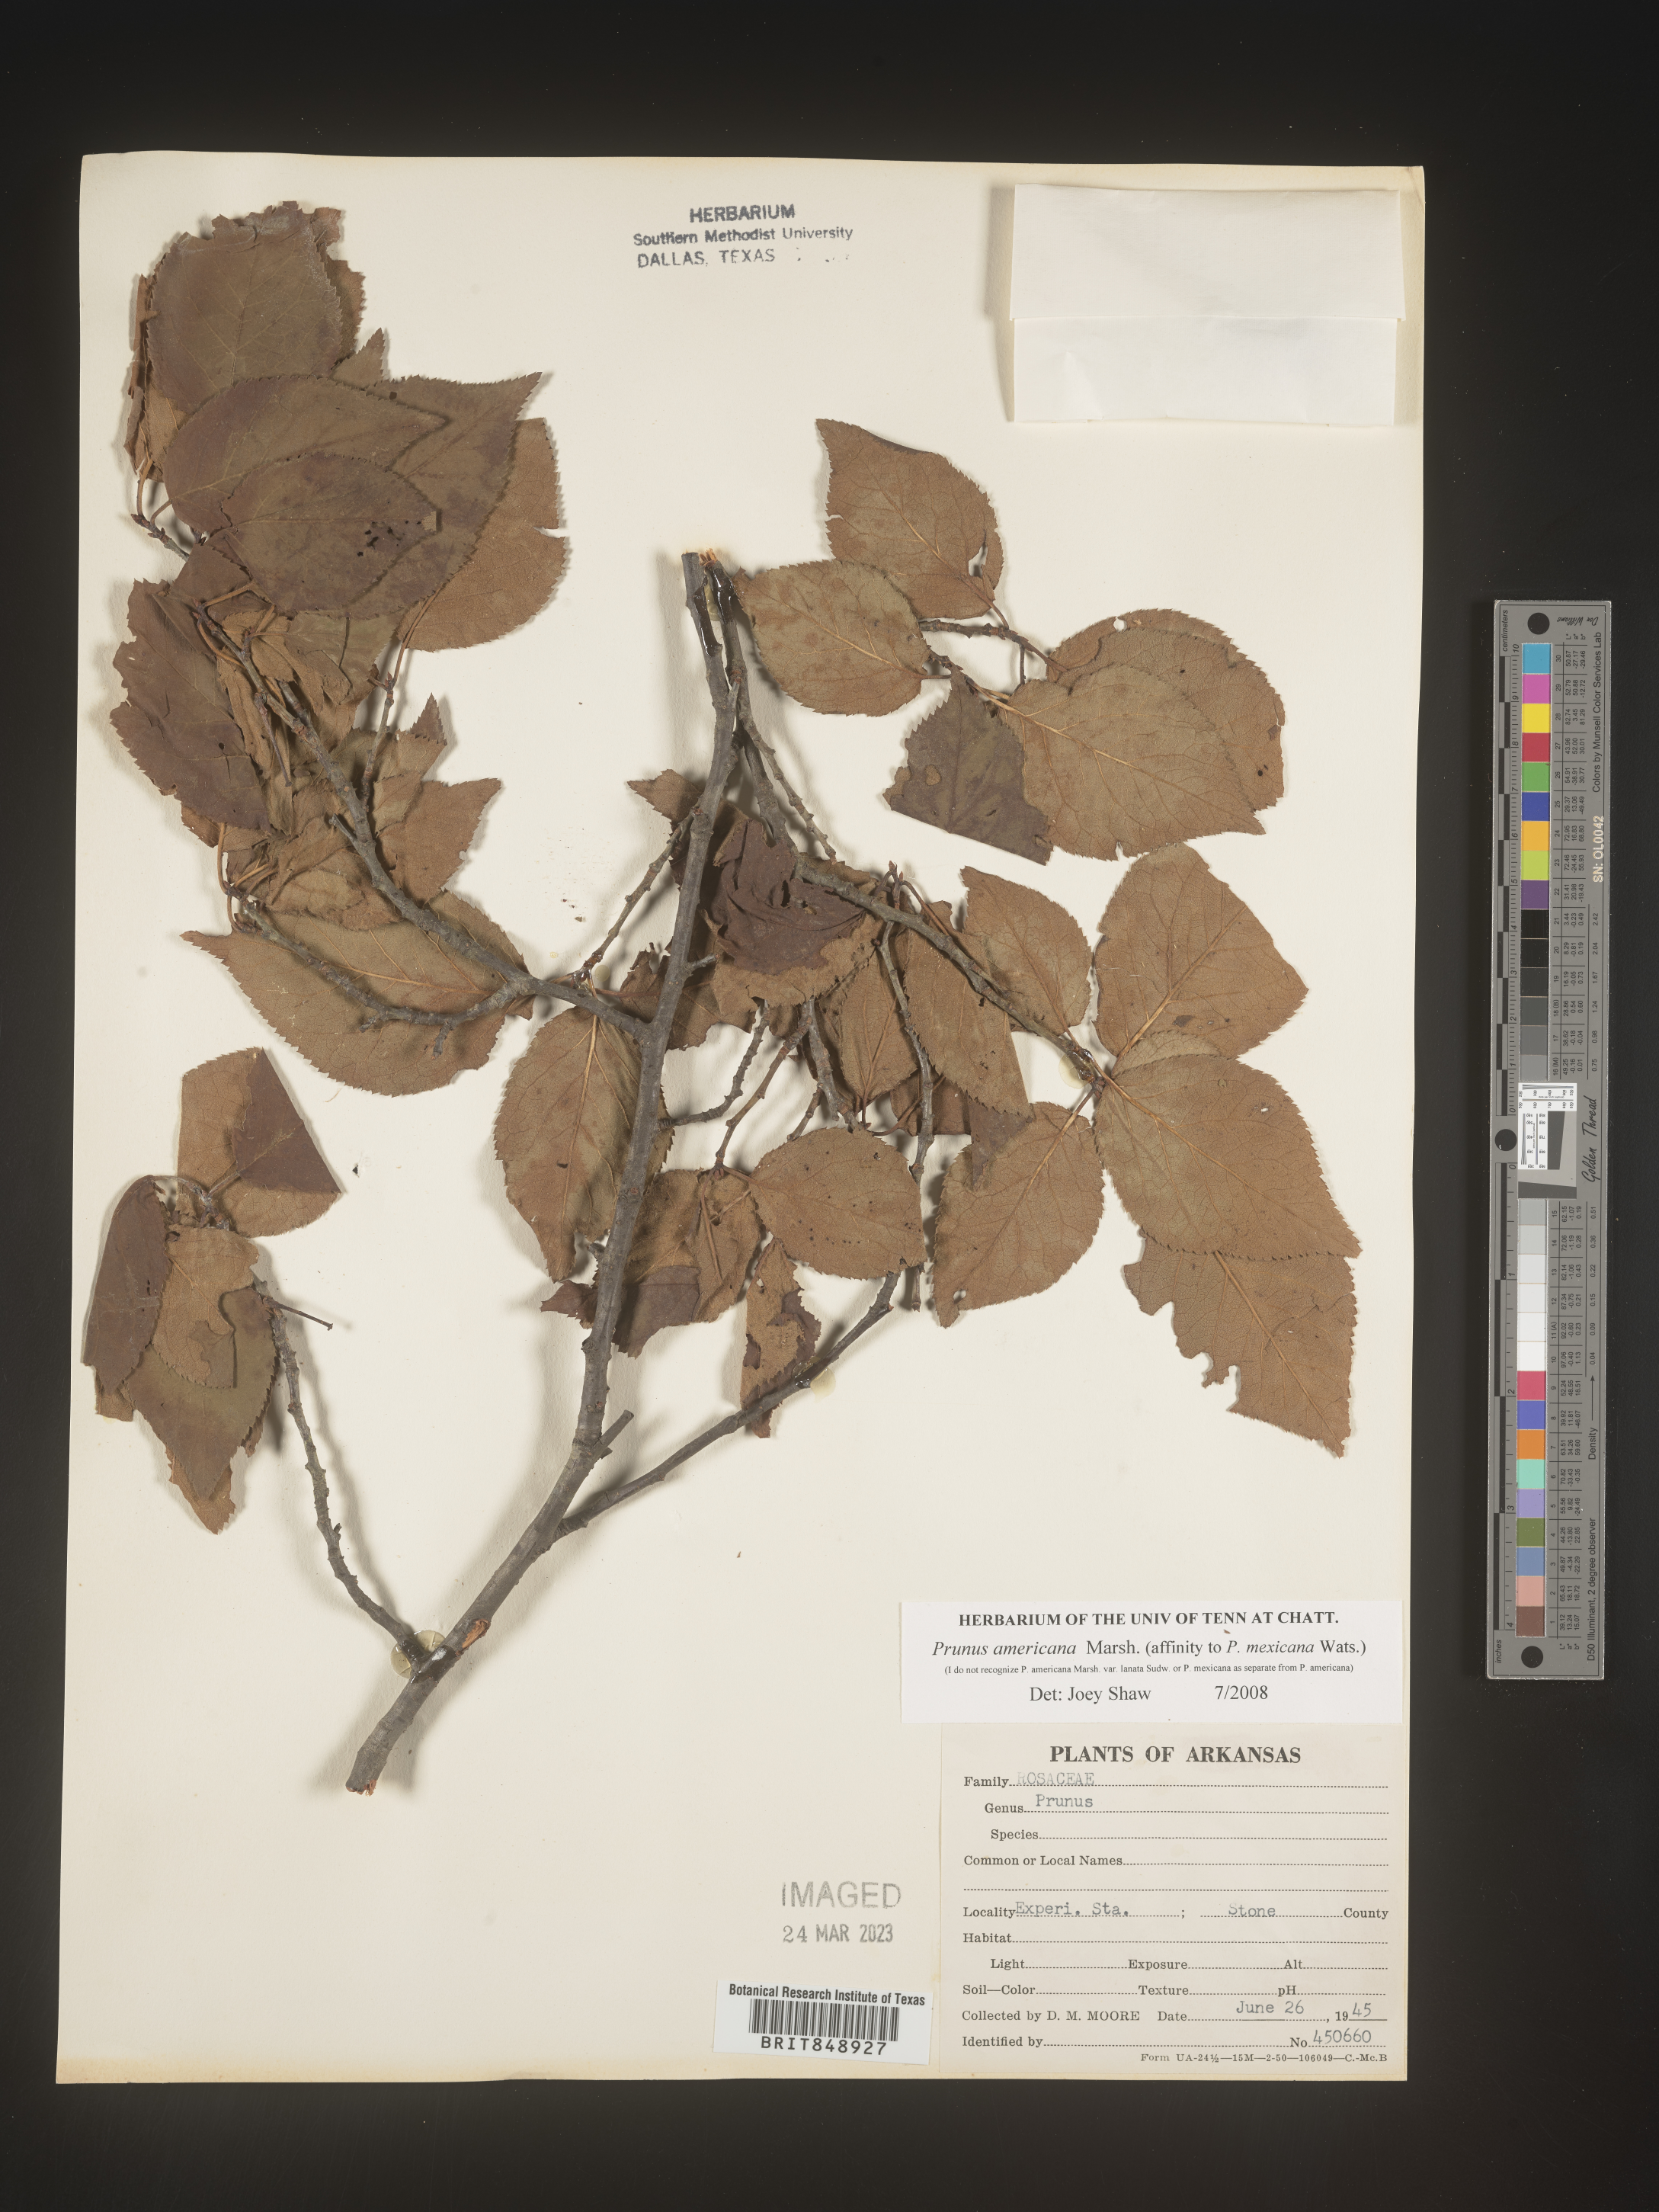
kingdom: Plantae
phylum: Tracheophyta
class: Magnoliopsida
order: Rosales
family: Rosaceae
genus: Prunus
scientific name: Prunus americana
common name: American plum
